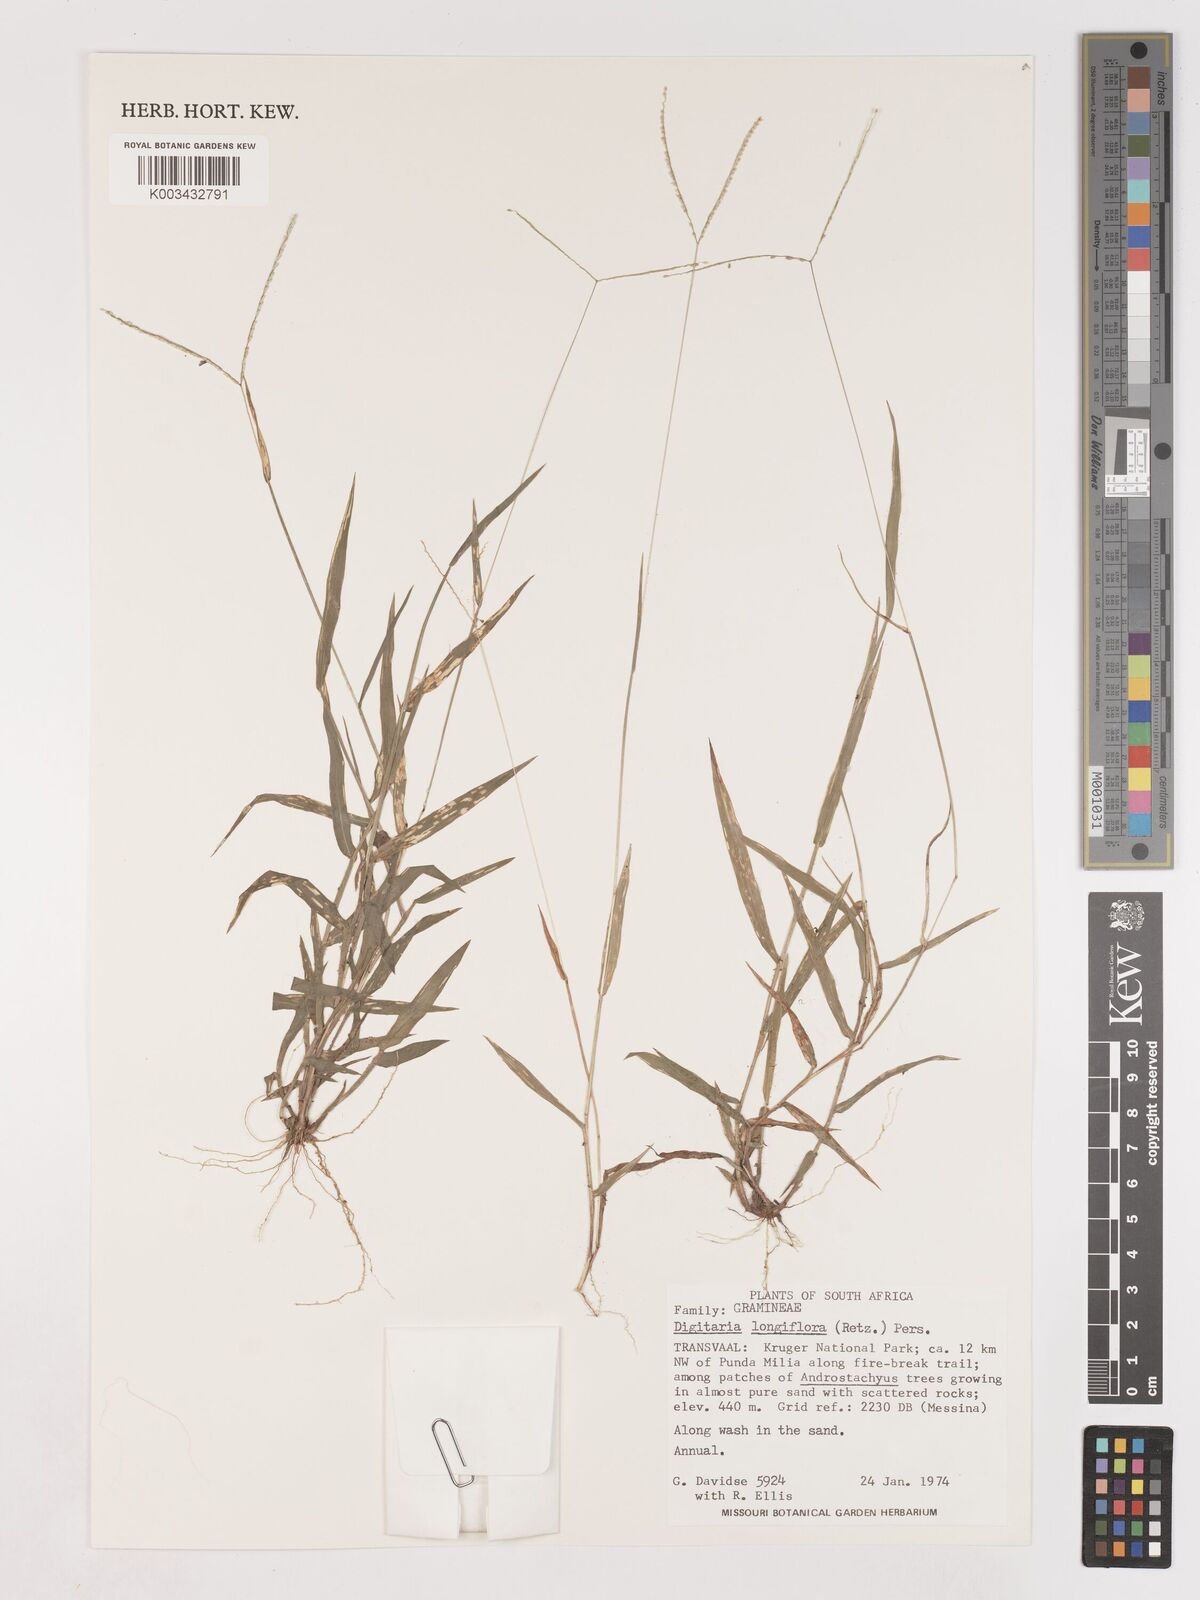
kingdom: Plantae
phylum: Tracheophyta
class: Liliopsida
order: Poales
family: Poaceae
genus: Digitaria
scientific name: Digitaria longiflora
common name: Wire crabgrass
